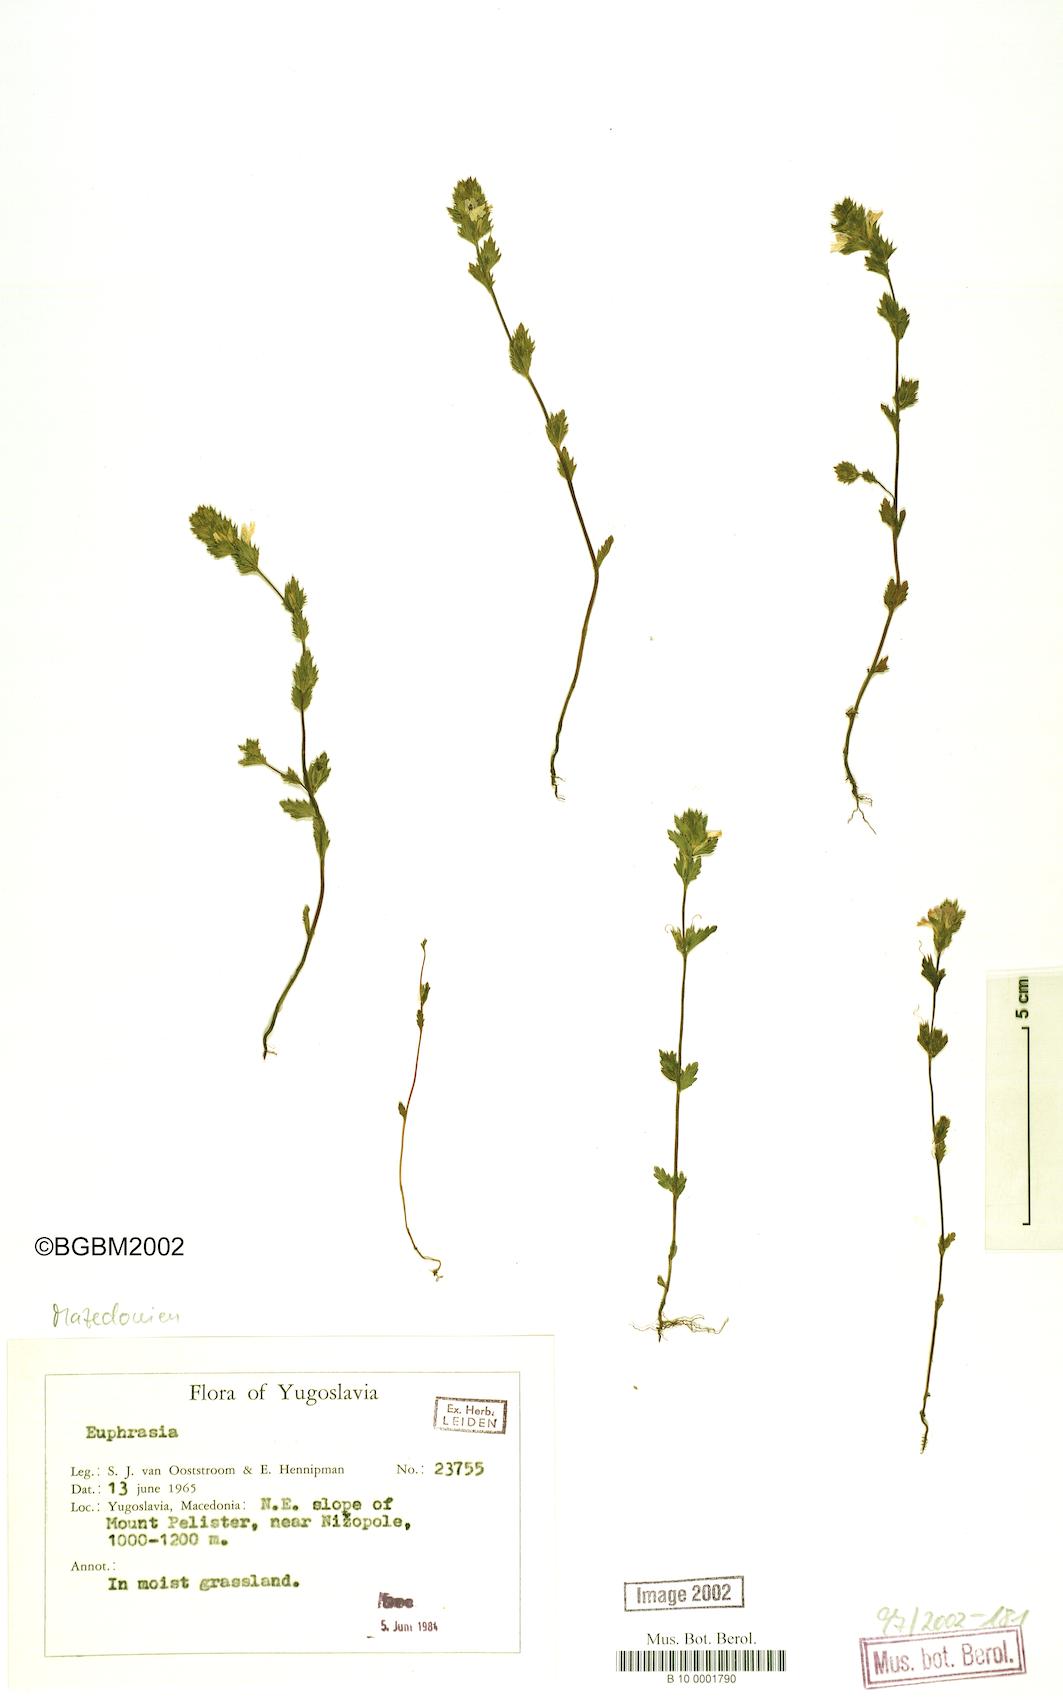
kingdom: Plantae
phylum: Tracheophyta
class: Magnoliopsida
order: Lamiales
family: Orobanchaceae
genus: Euphrasia
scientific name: Euphrasia
